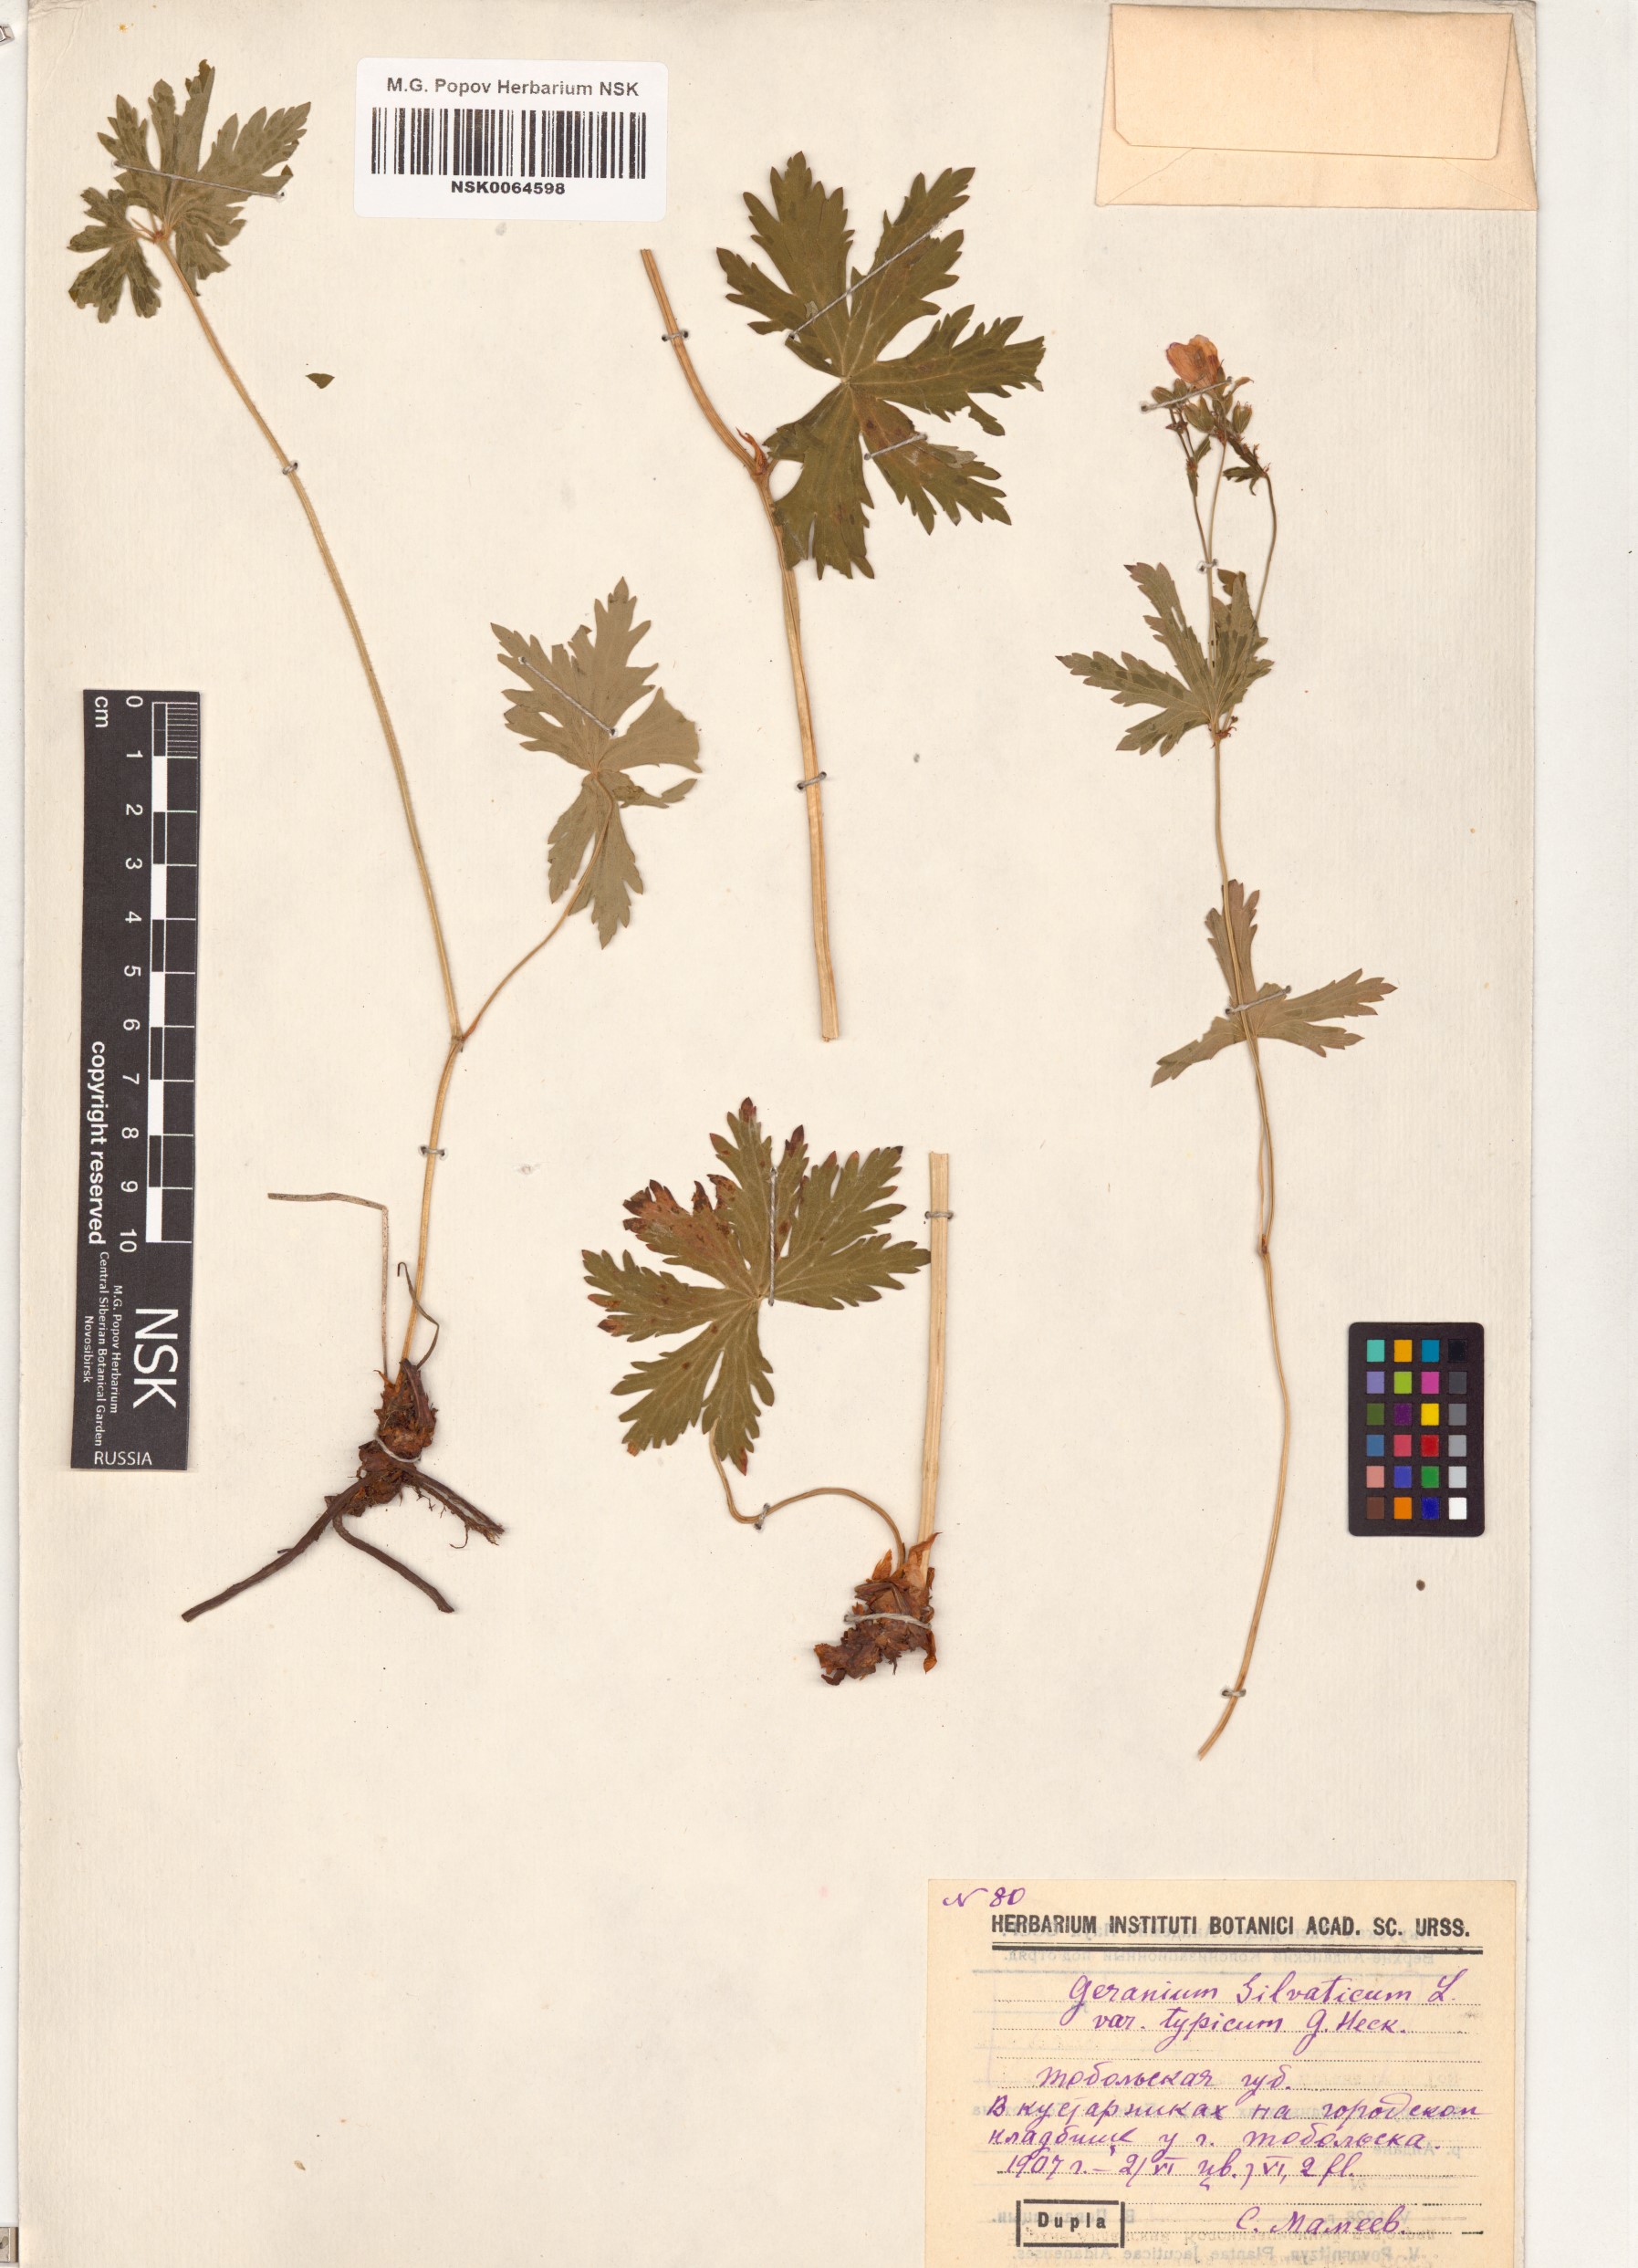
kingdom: Plantae
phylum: Tracheophyta
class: Magnoliopsida
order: Geraniales
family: Geraniaceae
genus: Geranium
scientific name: Geranium sylvaticum
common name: Wood crane's-bill
